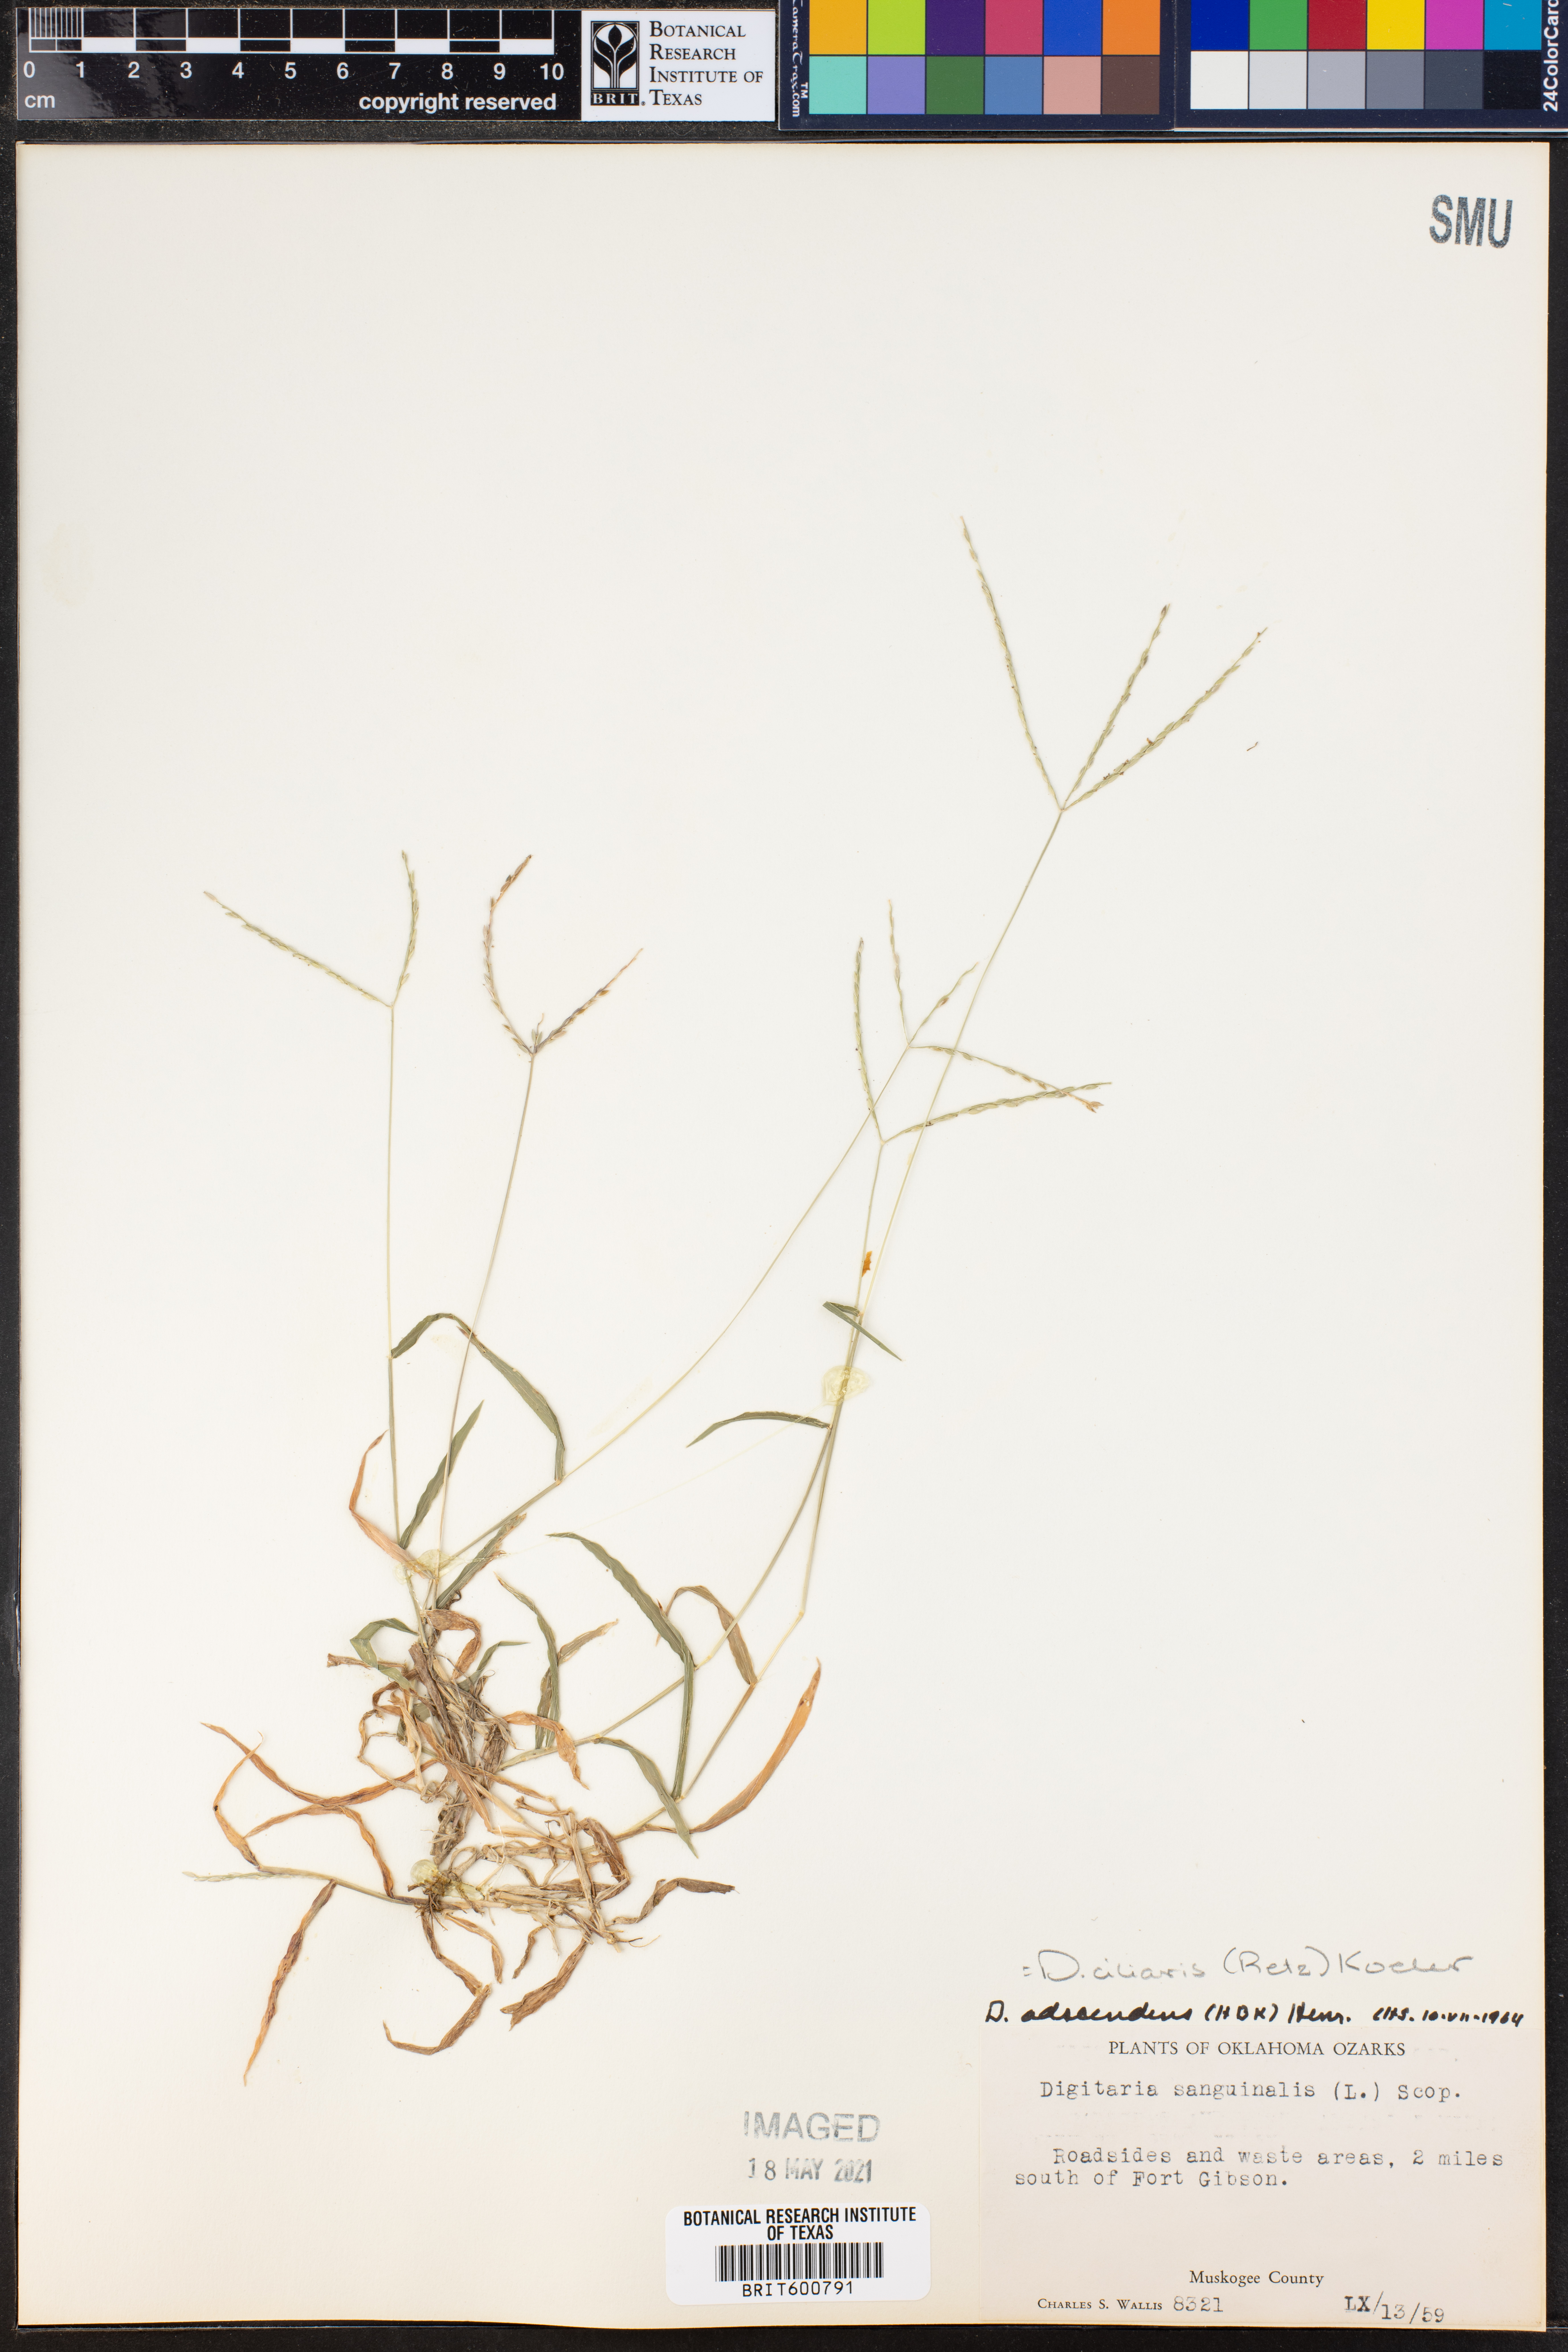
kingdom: Plantae
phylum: Tracheophyta
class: Liliopsida
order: Poales
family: Poaceae
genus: Digitaria
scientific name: Digitaria ciliaris
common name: Tropical finger-grass
